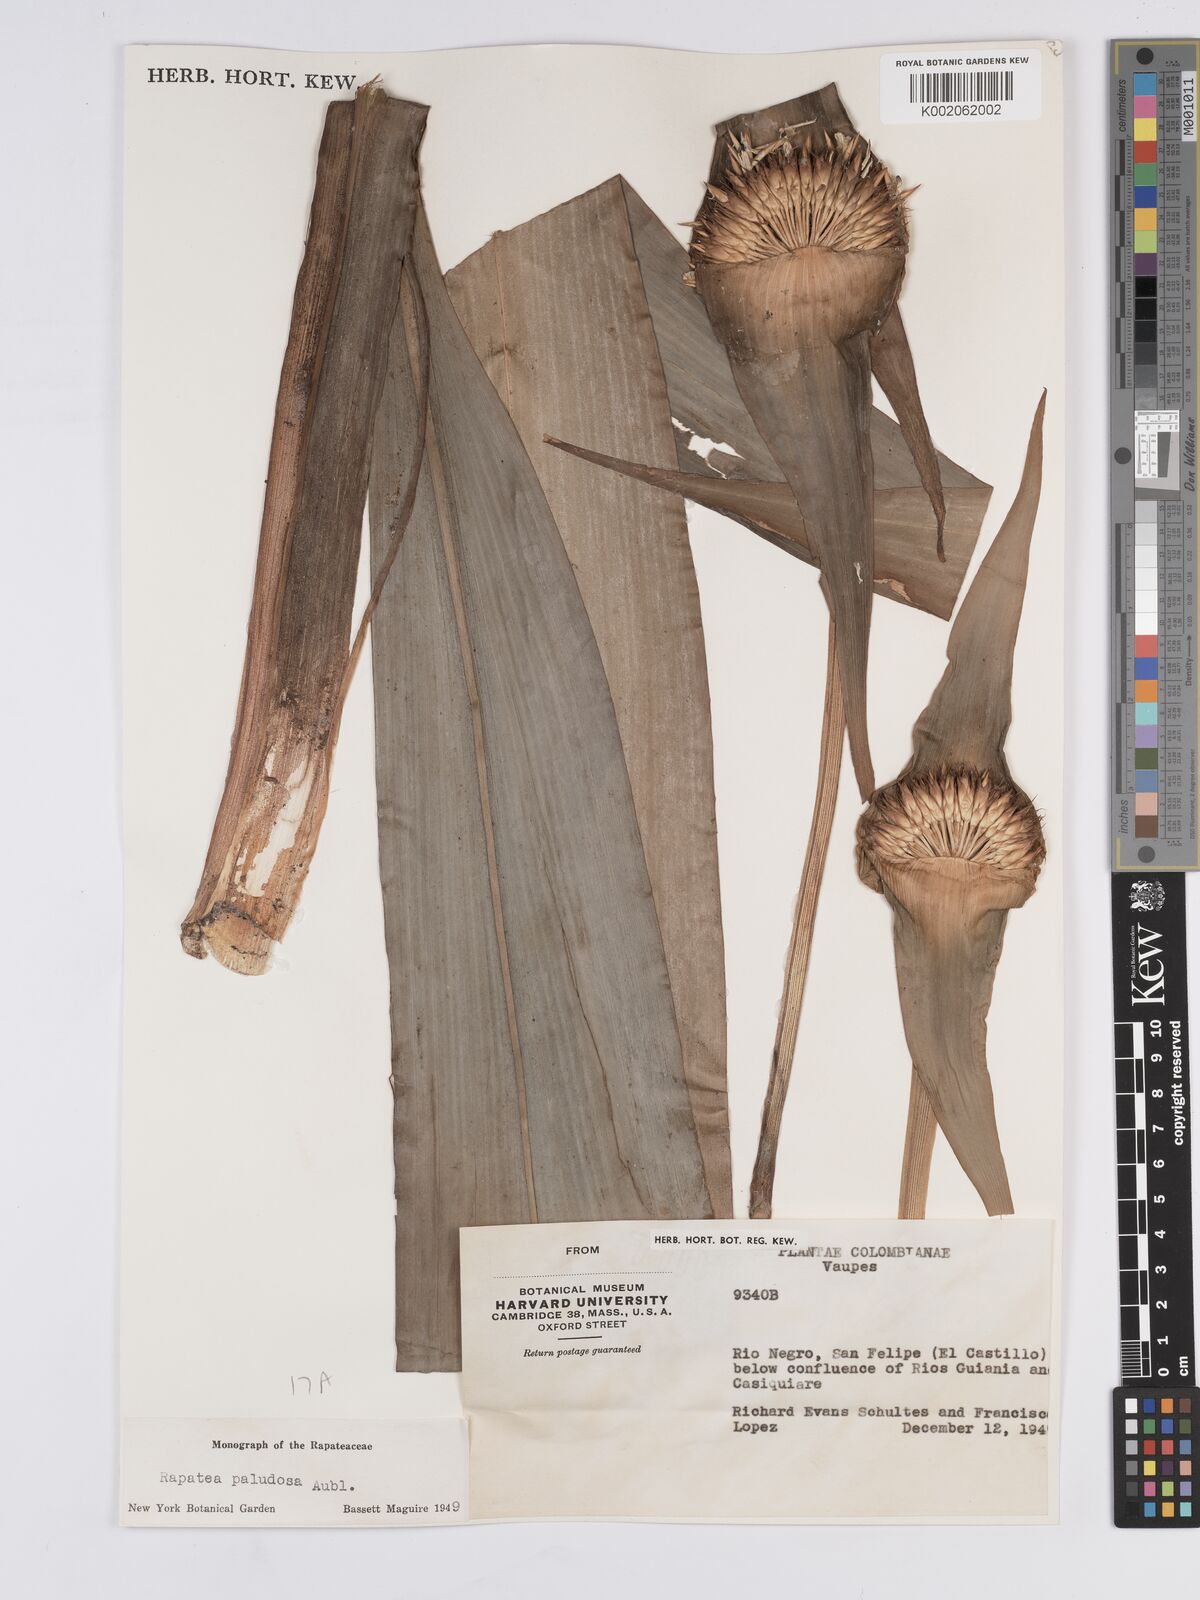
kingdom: Plantae
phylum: Tracheophyta
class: Liliopsida
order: Poales
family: Rapateaceae
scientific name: Rapateaceae
